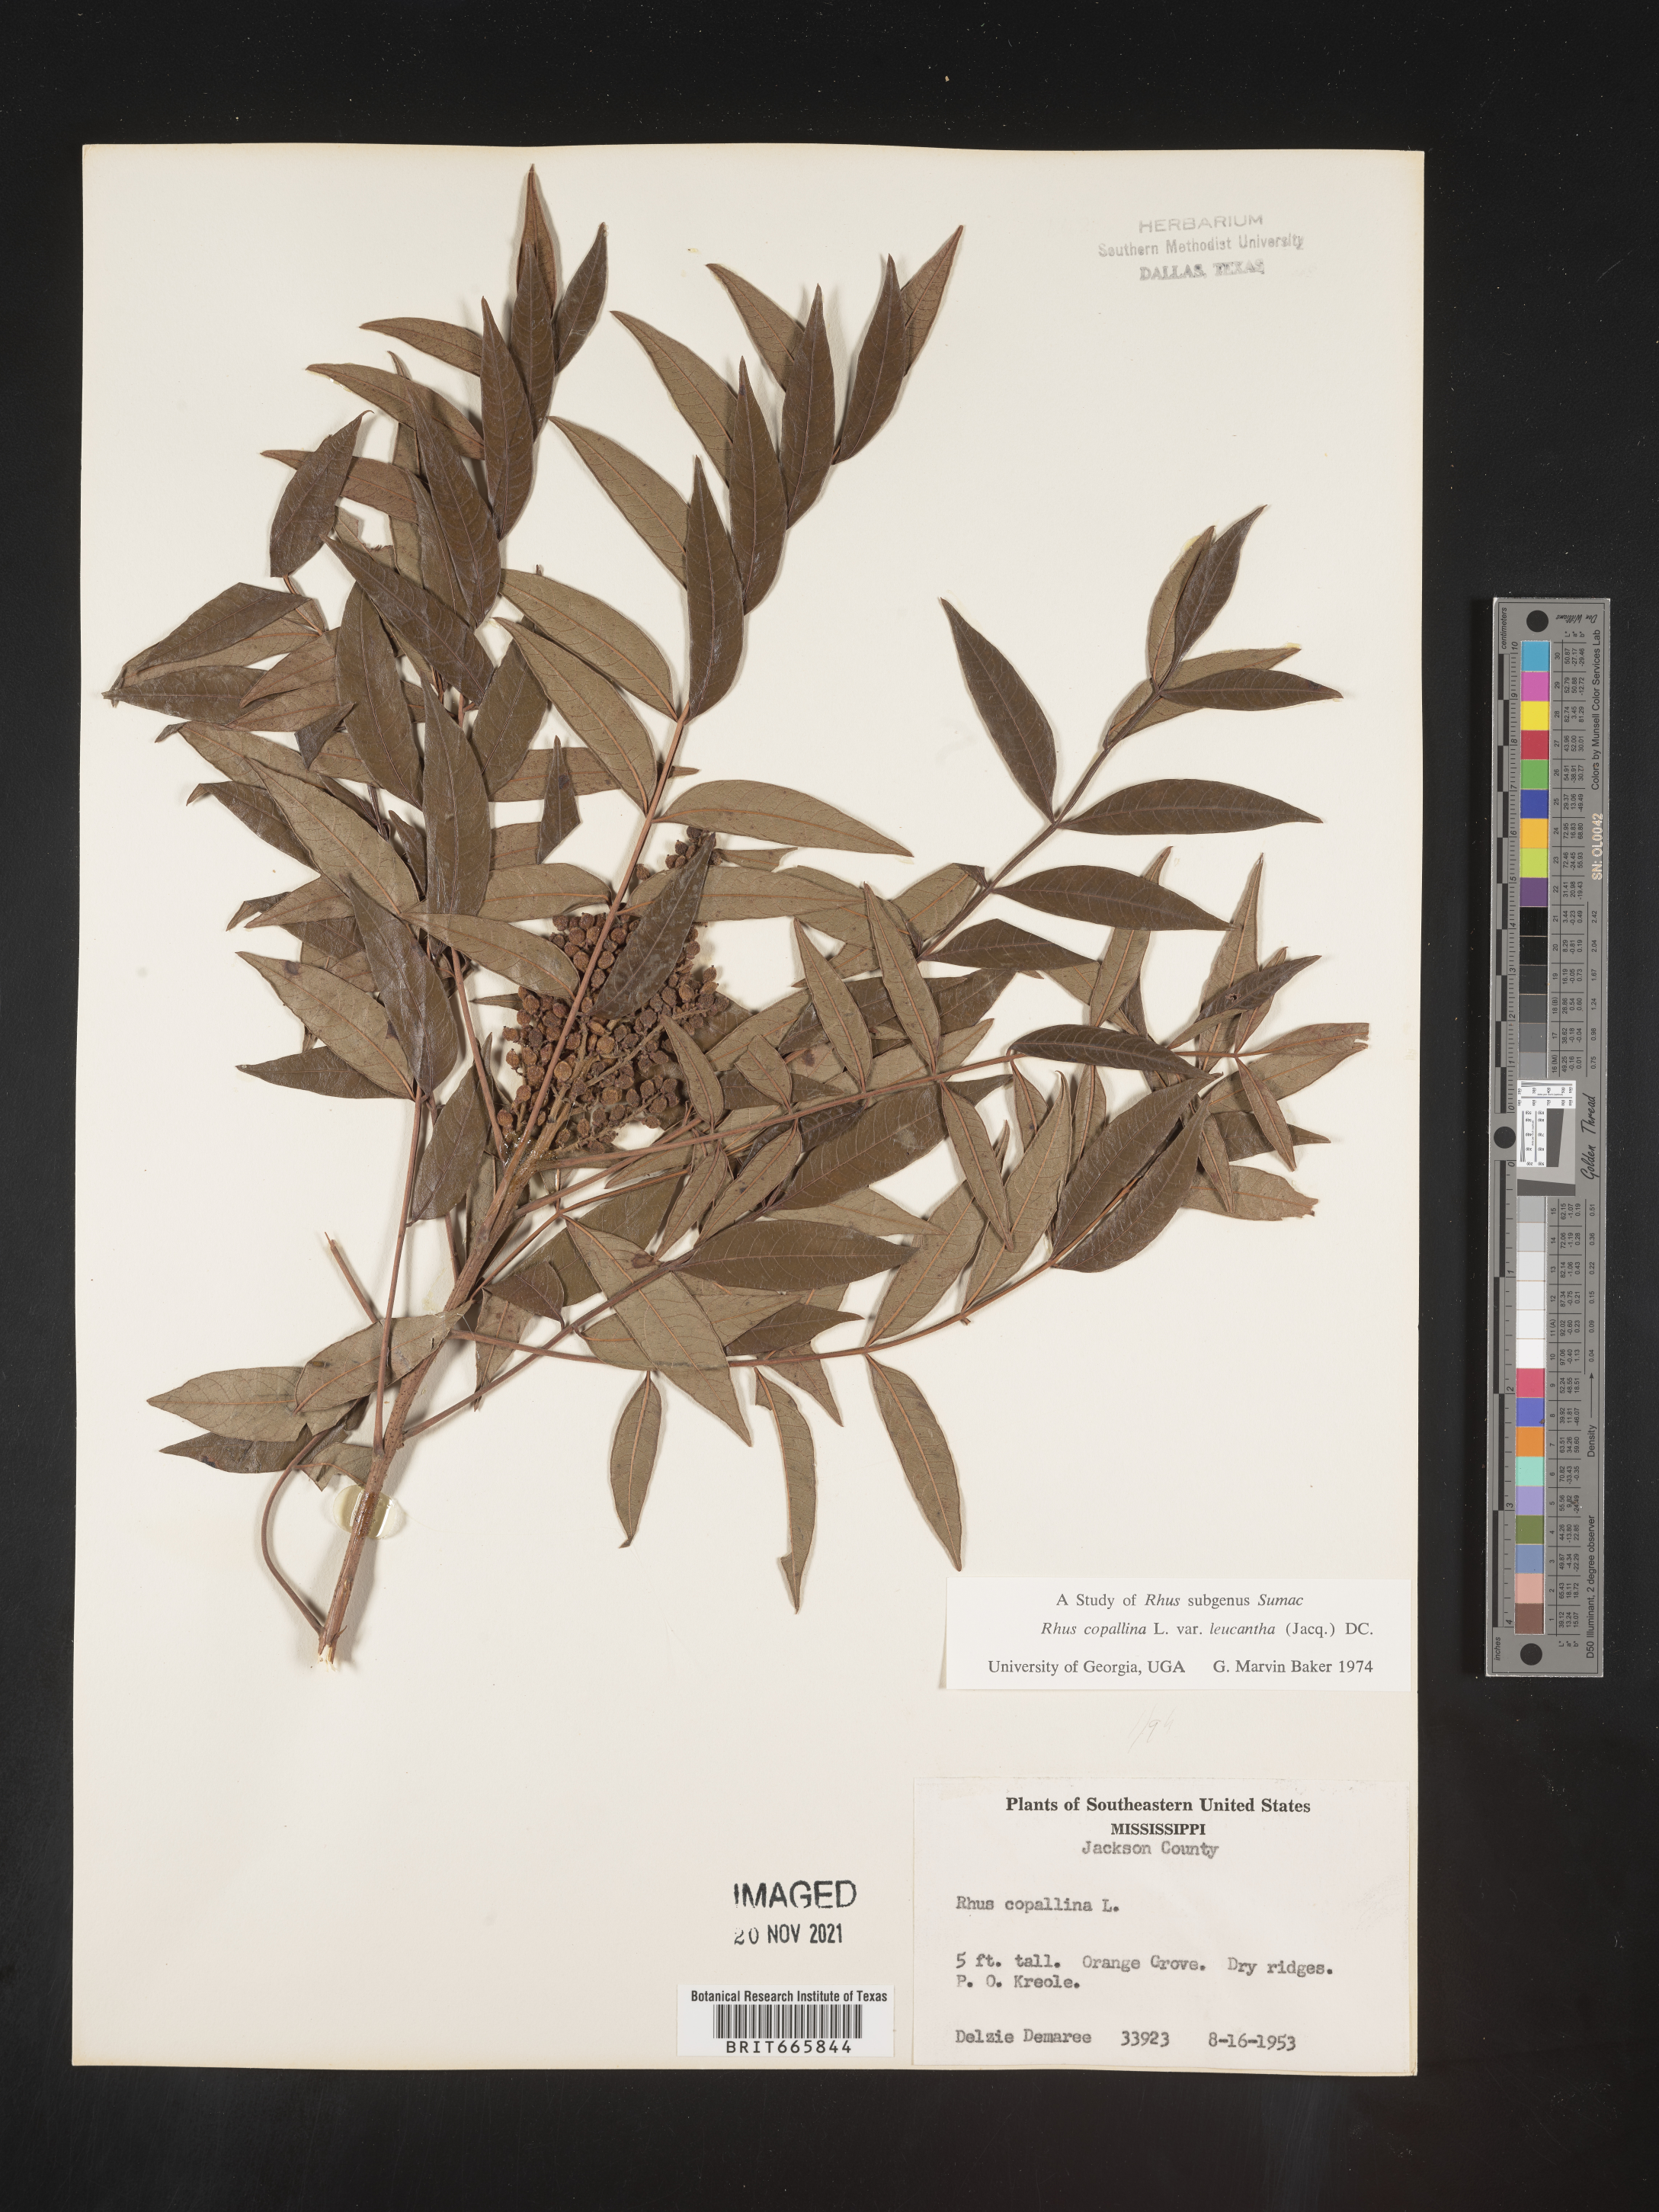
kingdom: Plantae
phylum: Tracheophyta
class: Magnoliopsida
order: Sapindales
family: Anacardiaceae
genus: Rhus
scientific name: Rhus copallina
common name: Shining sumac
